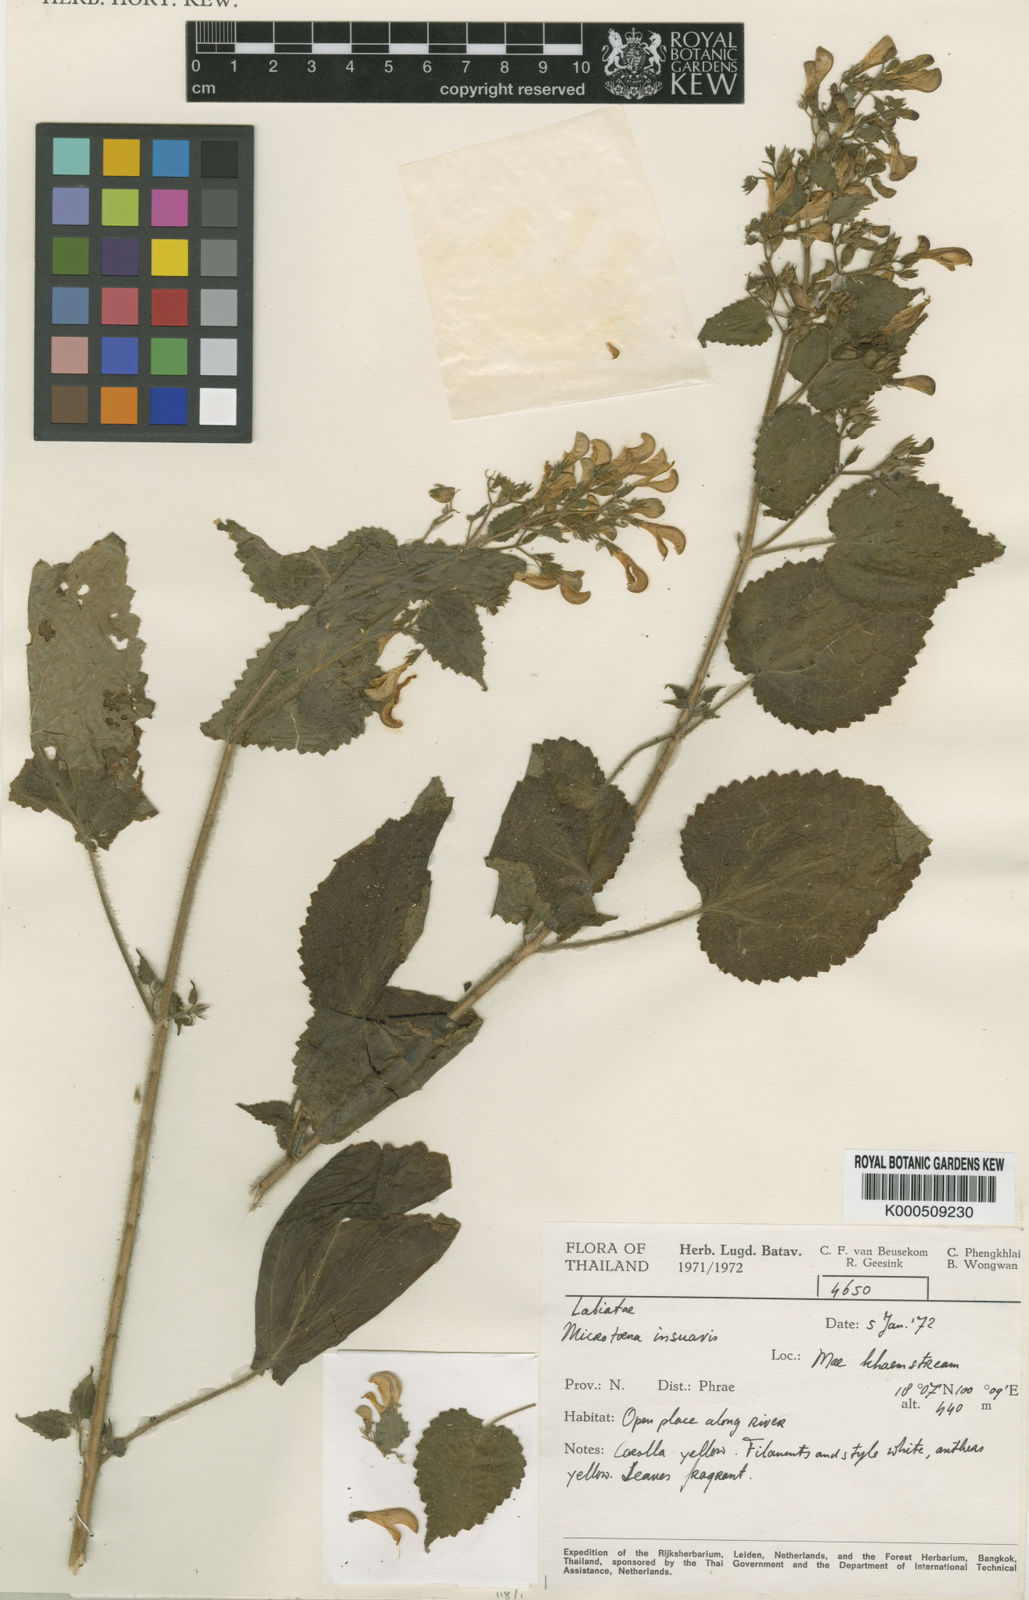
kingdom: Plantae
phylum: Tracheophyta
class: Magnoliopsida
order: Lamiales
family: Lamiaceae
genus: Microtoena
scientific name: Microtoena insuavis
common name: Chinese patchouli
